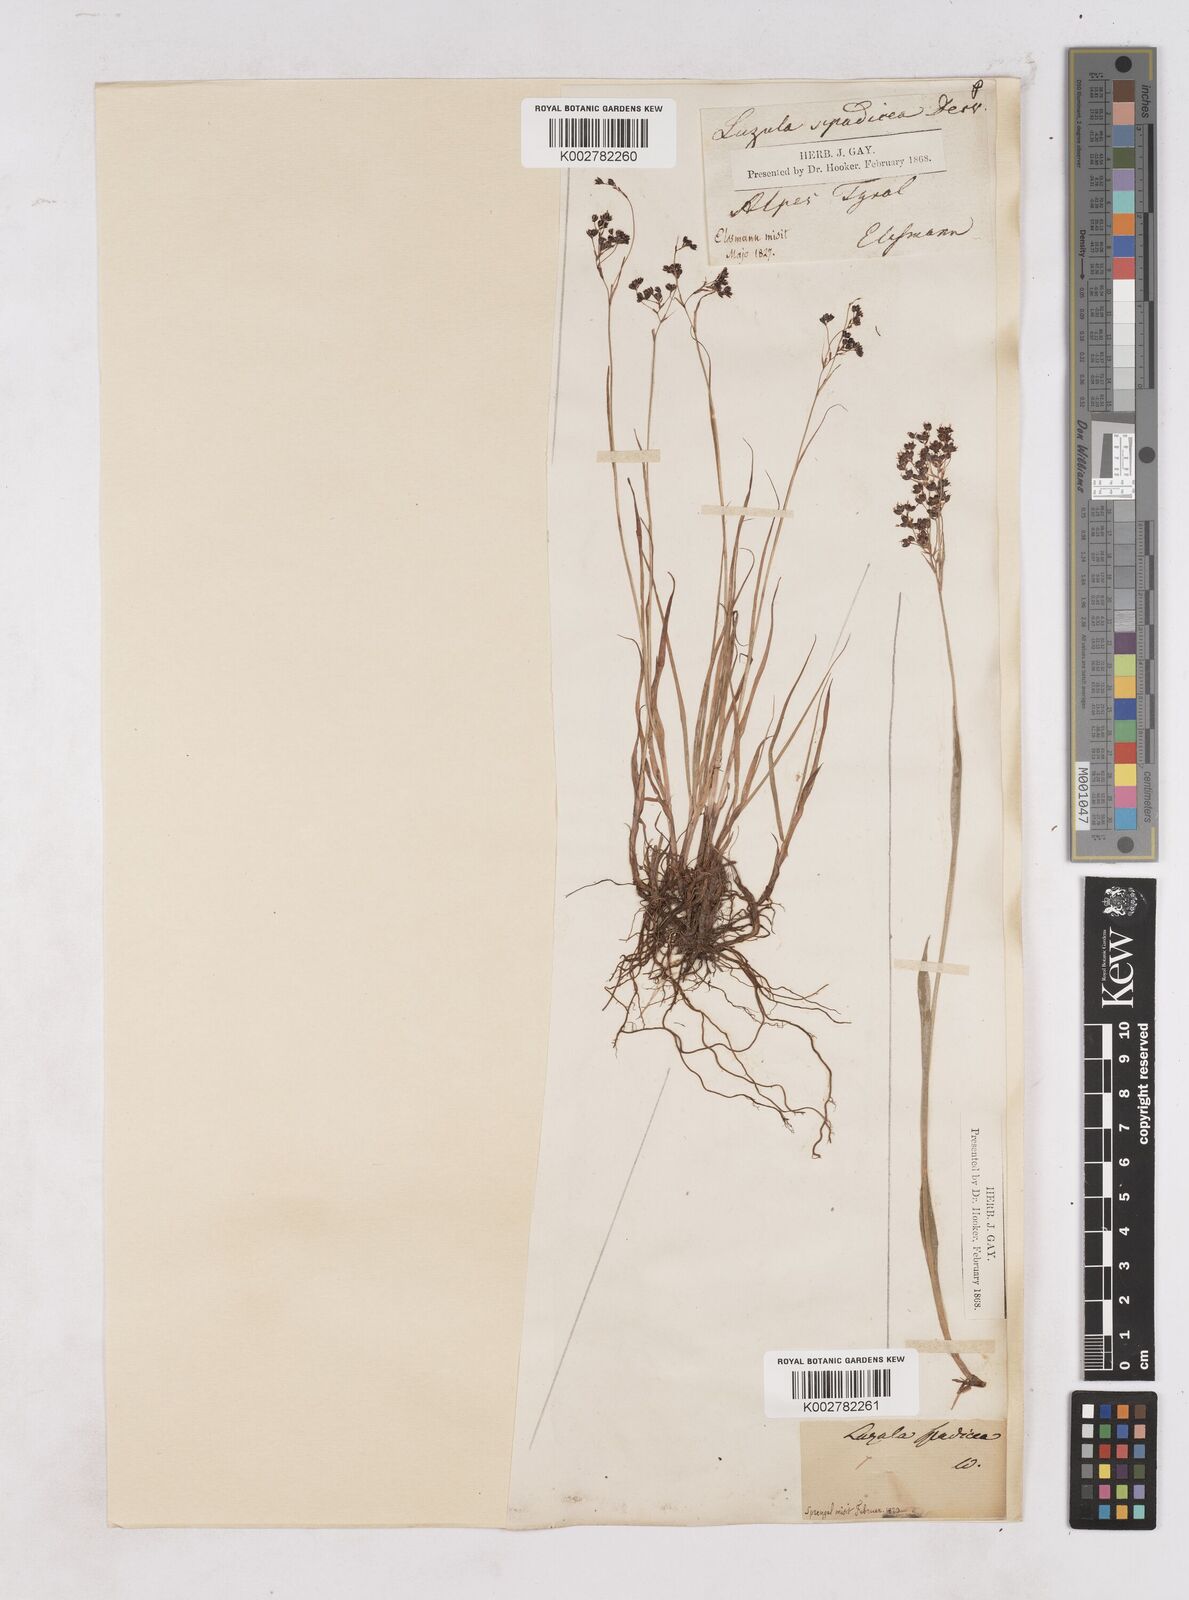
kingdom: Plantae
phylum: Tracheophyta
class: Liliopsida
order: Poales
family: Juncaceae
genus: Luzula
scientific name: Luzula alpinopilosa
